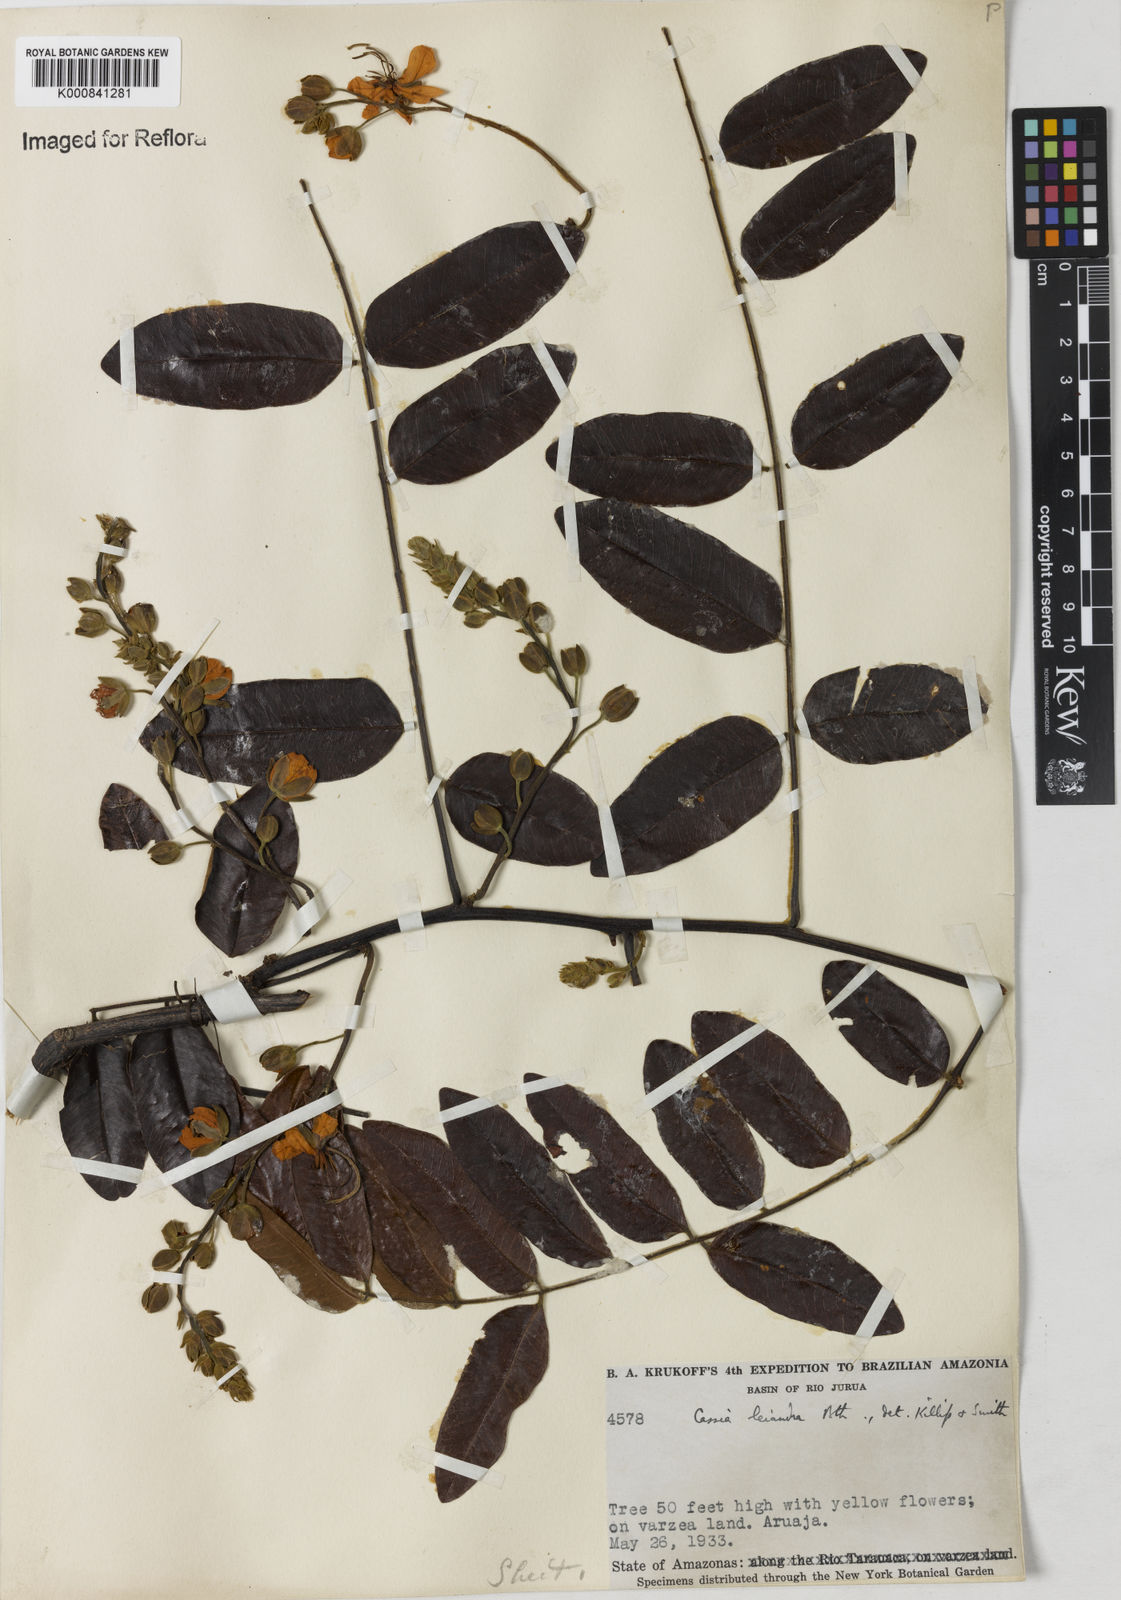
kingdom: Plantae
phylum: Tracheophyta
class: Magnoliopsida
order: Fabales
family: Fabaceae
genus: Cassia
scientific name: Cassia leiandra
